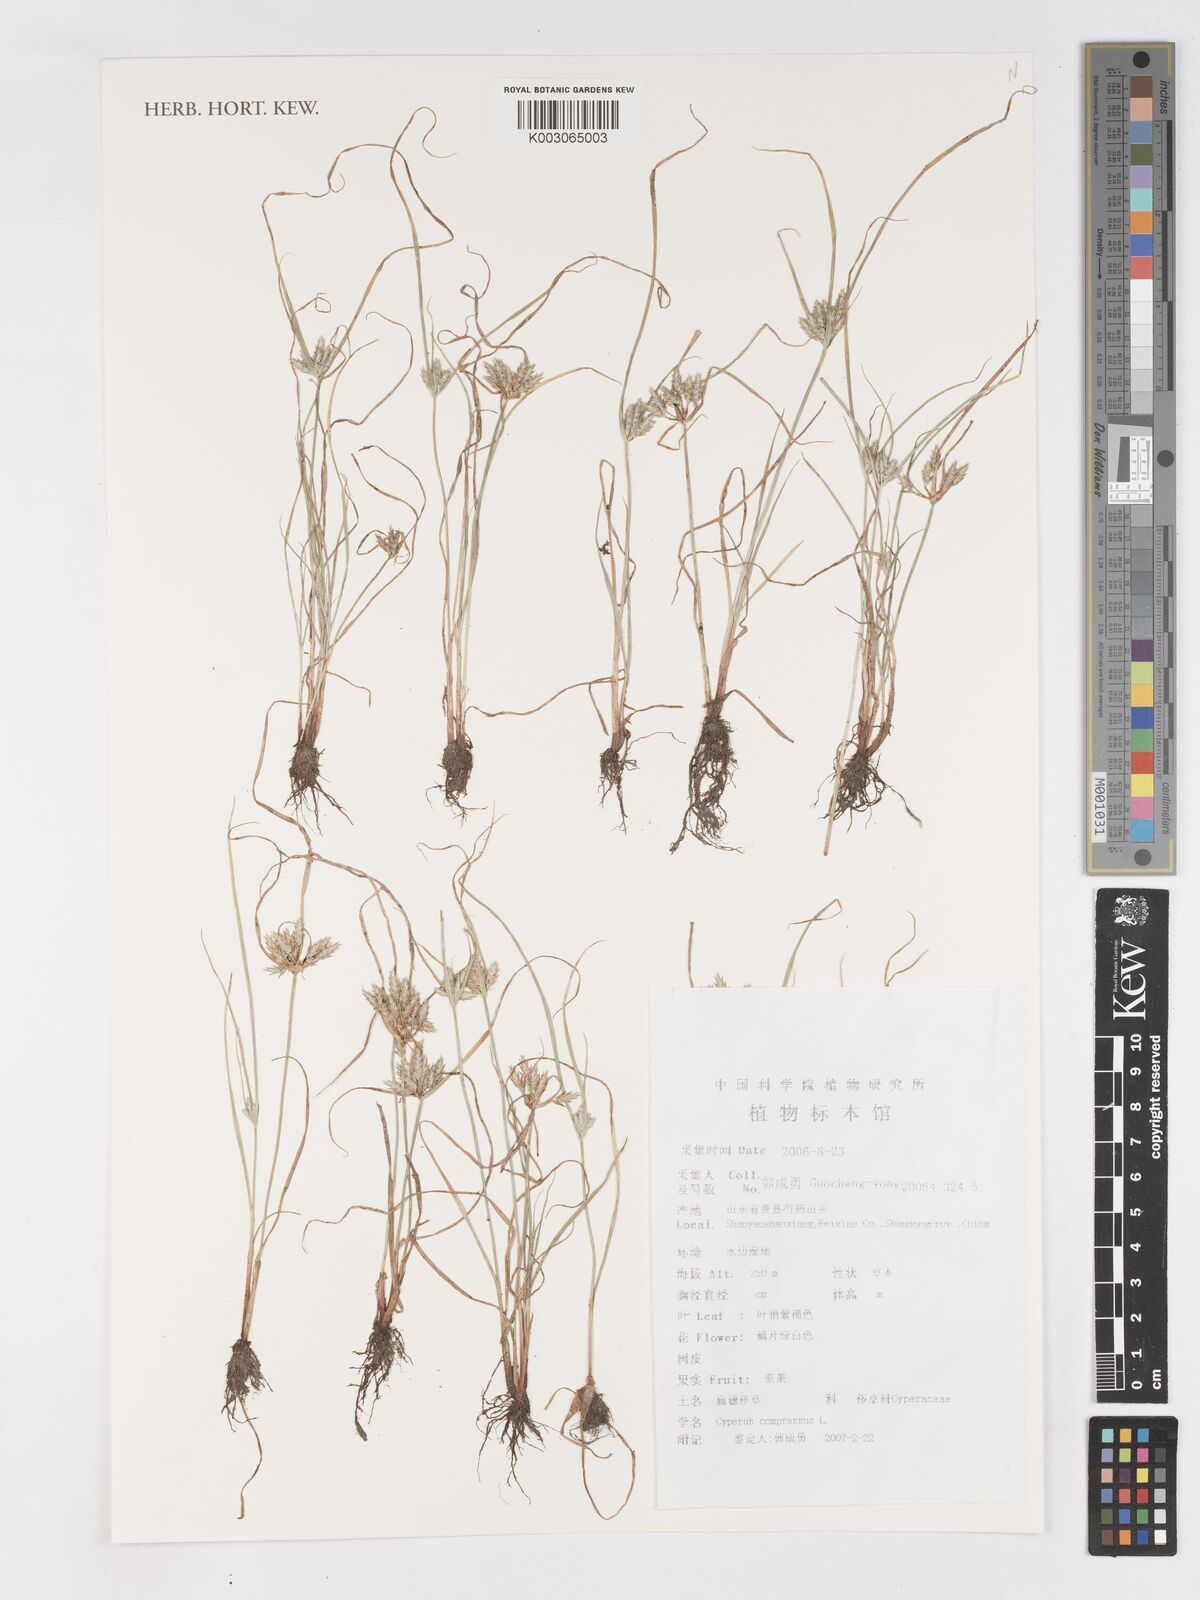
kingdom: Plantae
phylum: Tracheophyta
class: Liliopsida
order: Poales
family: Cyperaceae
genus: Cyperus
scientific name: Cyperus compressus
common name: Poorland flatsedge
